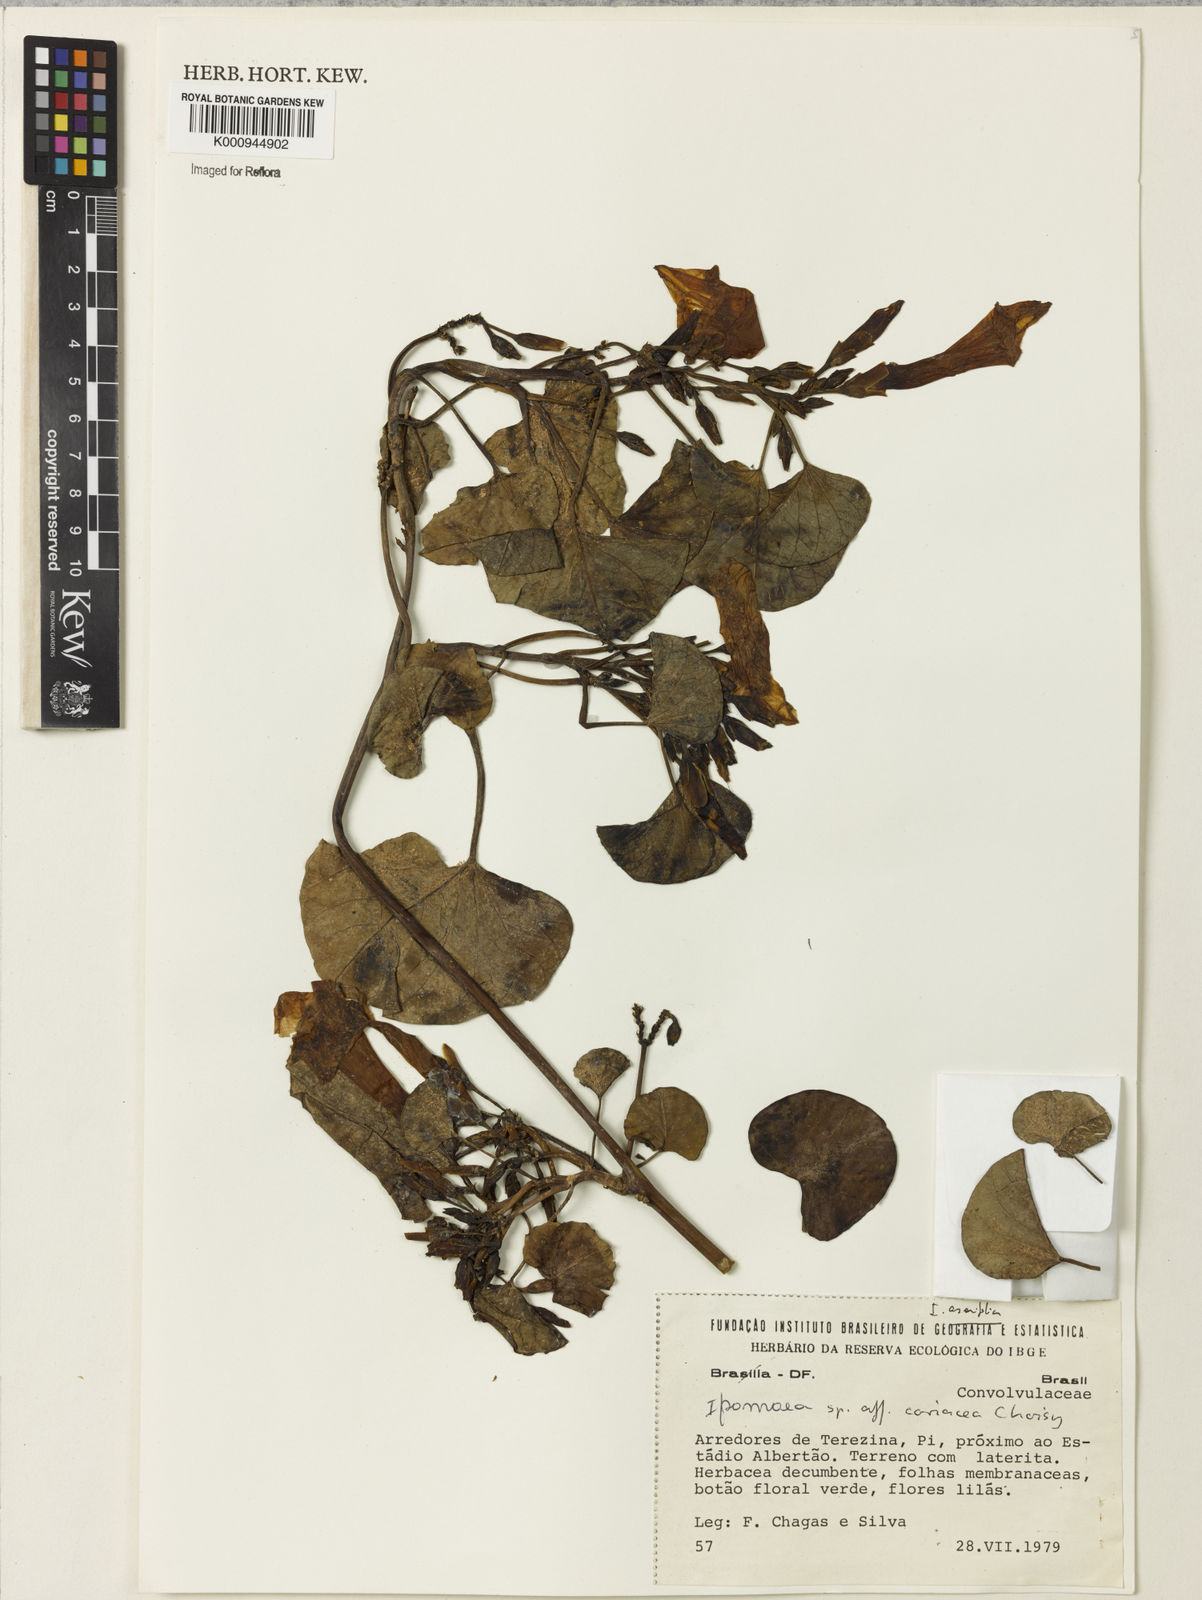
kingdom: Plantae
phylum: Tracheophyta
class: Magnoliopsida
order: Solanales
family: Convolvulaceae
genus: Ipomoea
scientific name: Ipomoea asarifolia
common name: Ginger-leaf morning-glory
